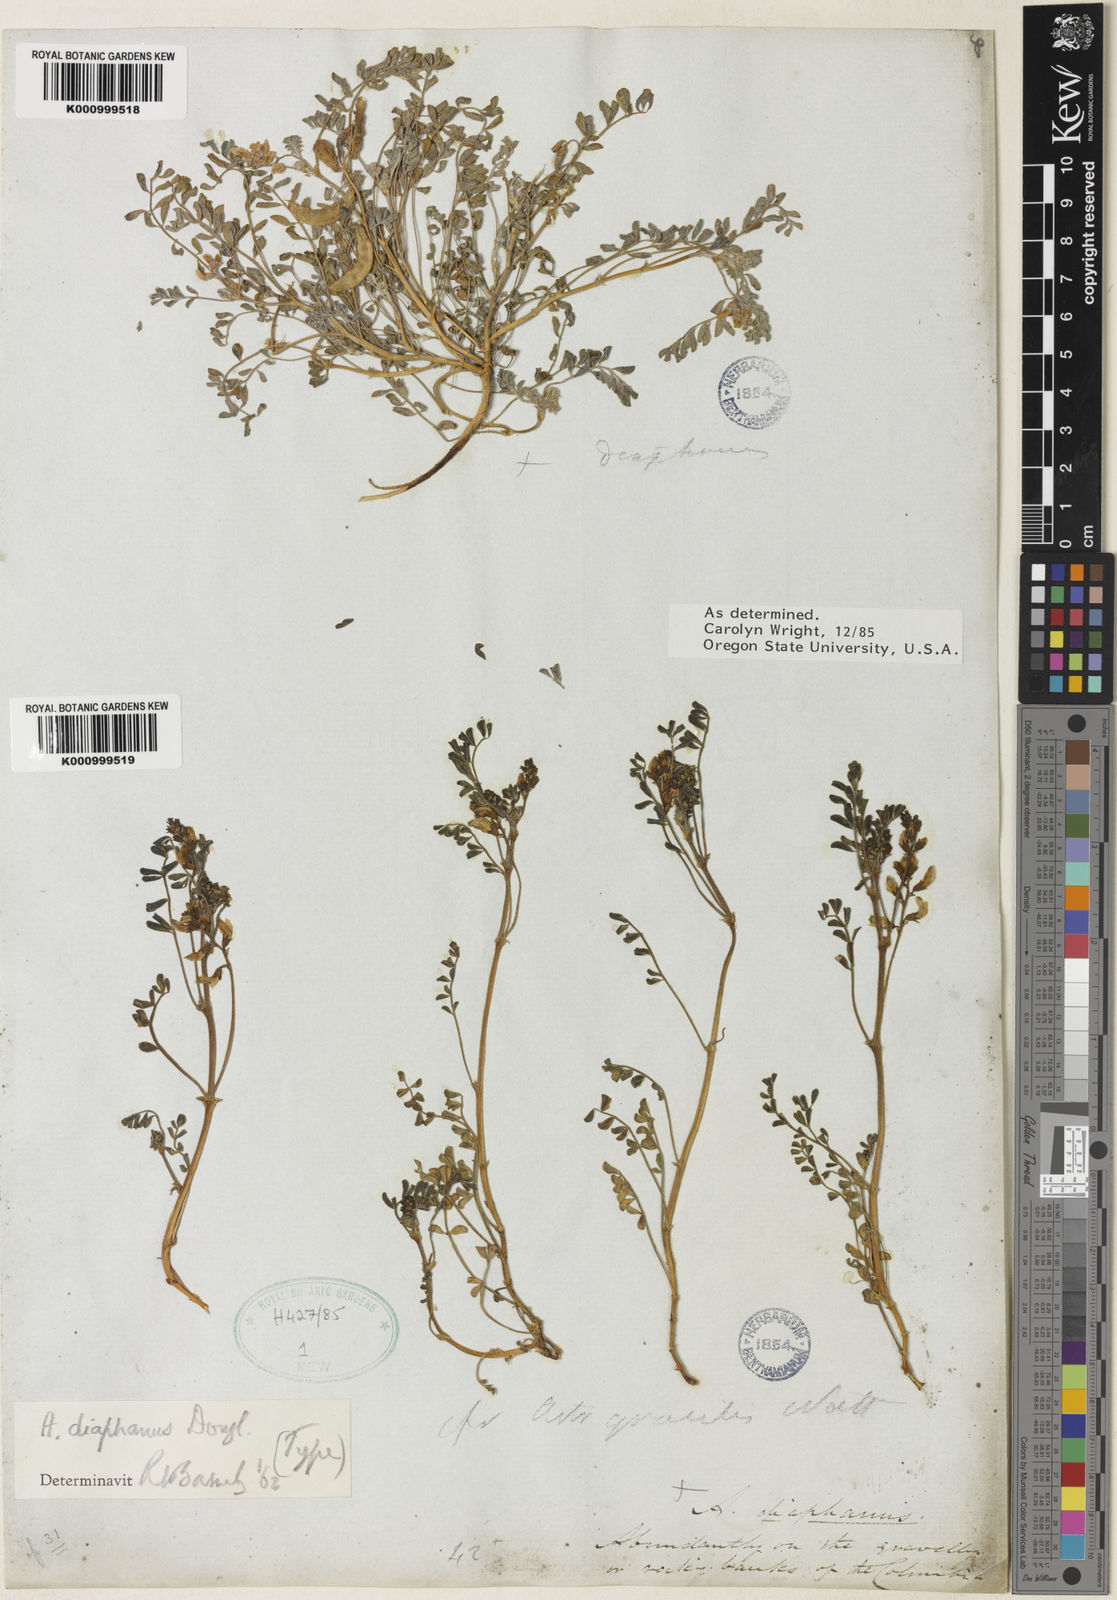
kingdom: Plantae
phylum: Tracheophyta
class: Magnoliopsida
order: Fabales
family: Fabaceae
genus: Astragalus
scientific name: Astragalus
